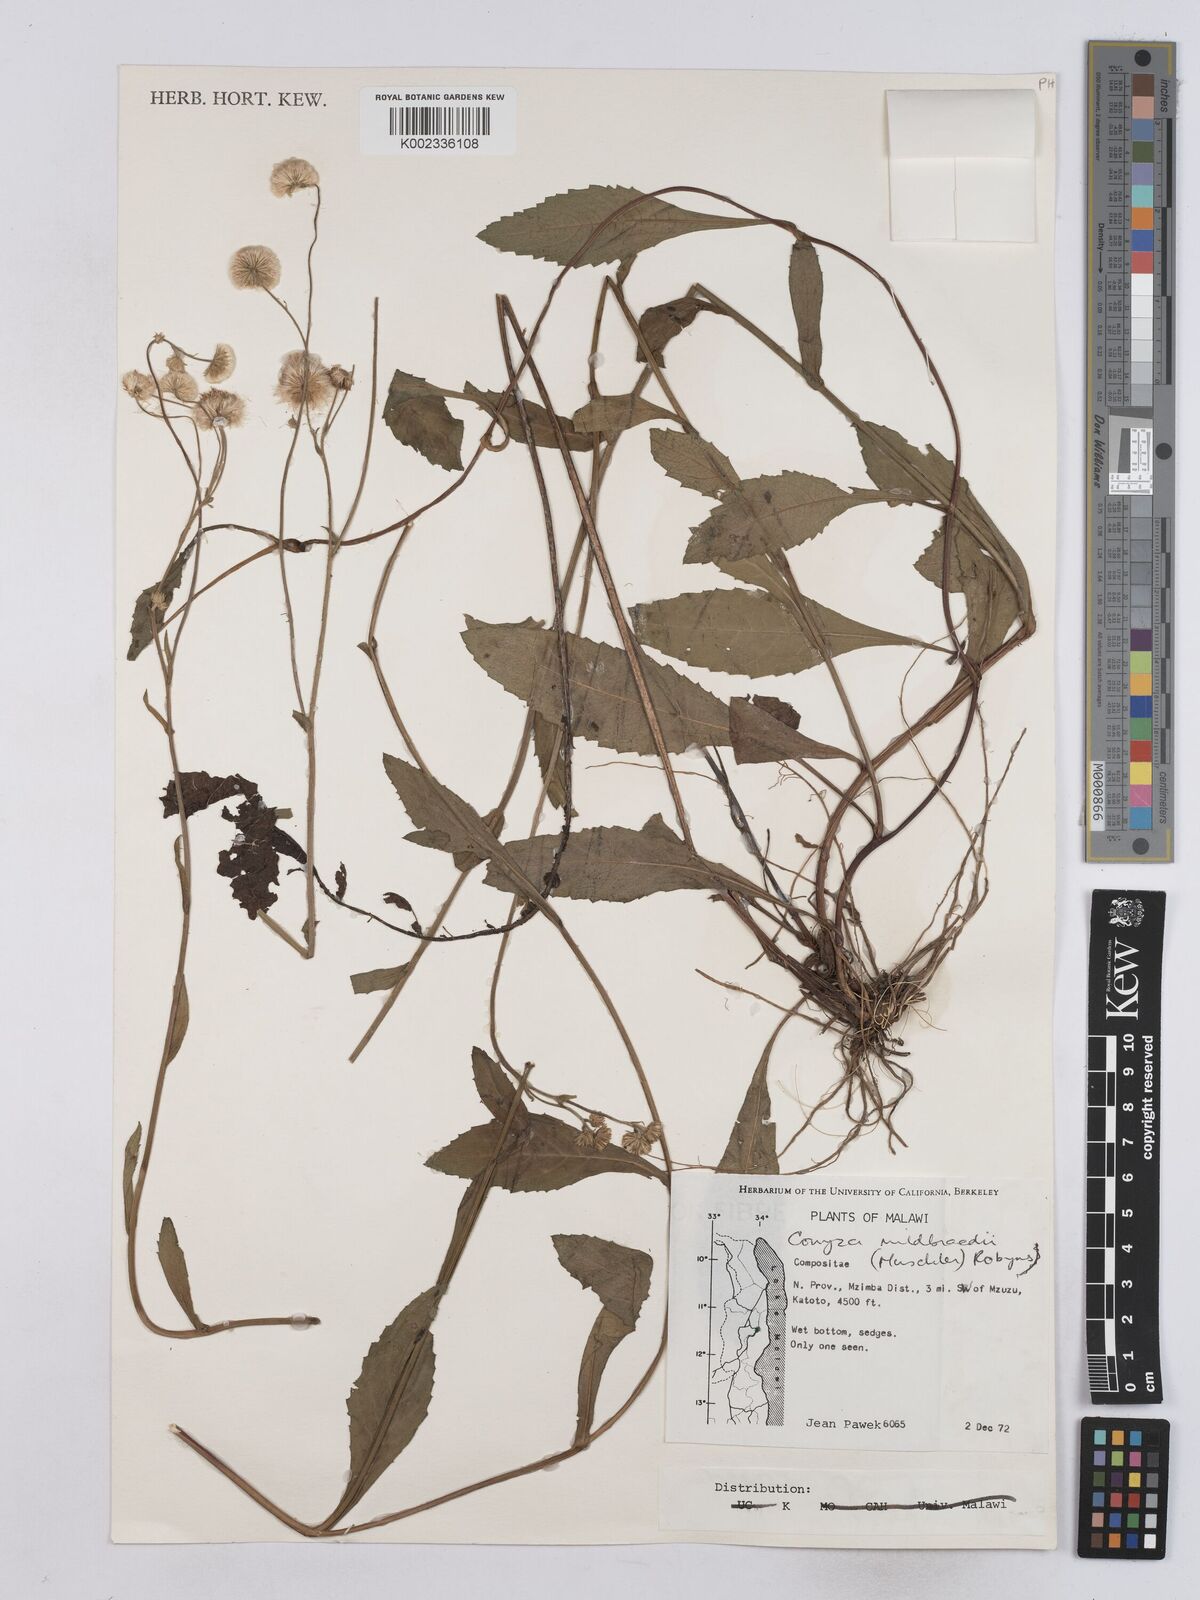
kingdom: Plantae
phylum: Tracheophyta
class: Magnoliopsida
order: Asterales
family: Asteraceae
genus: Conyza
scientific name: Conyza limosa
